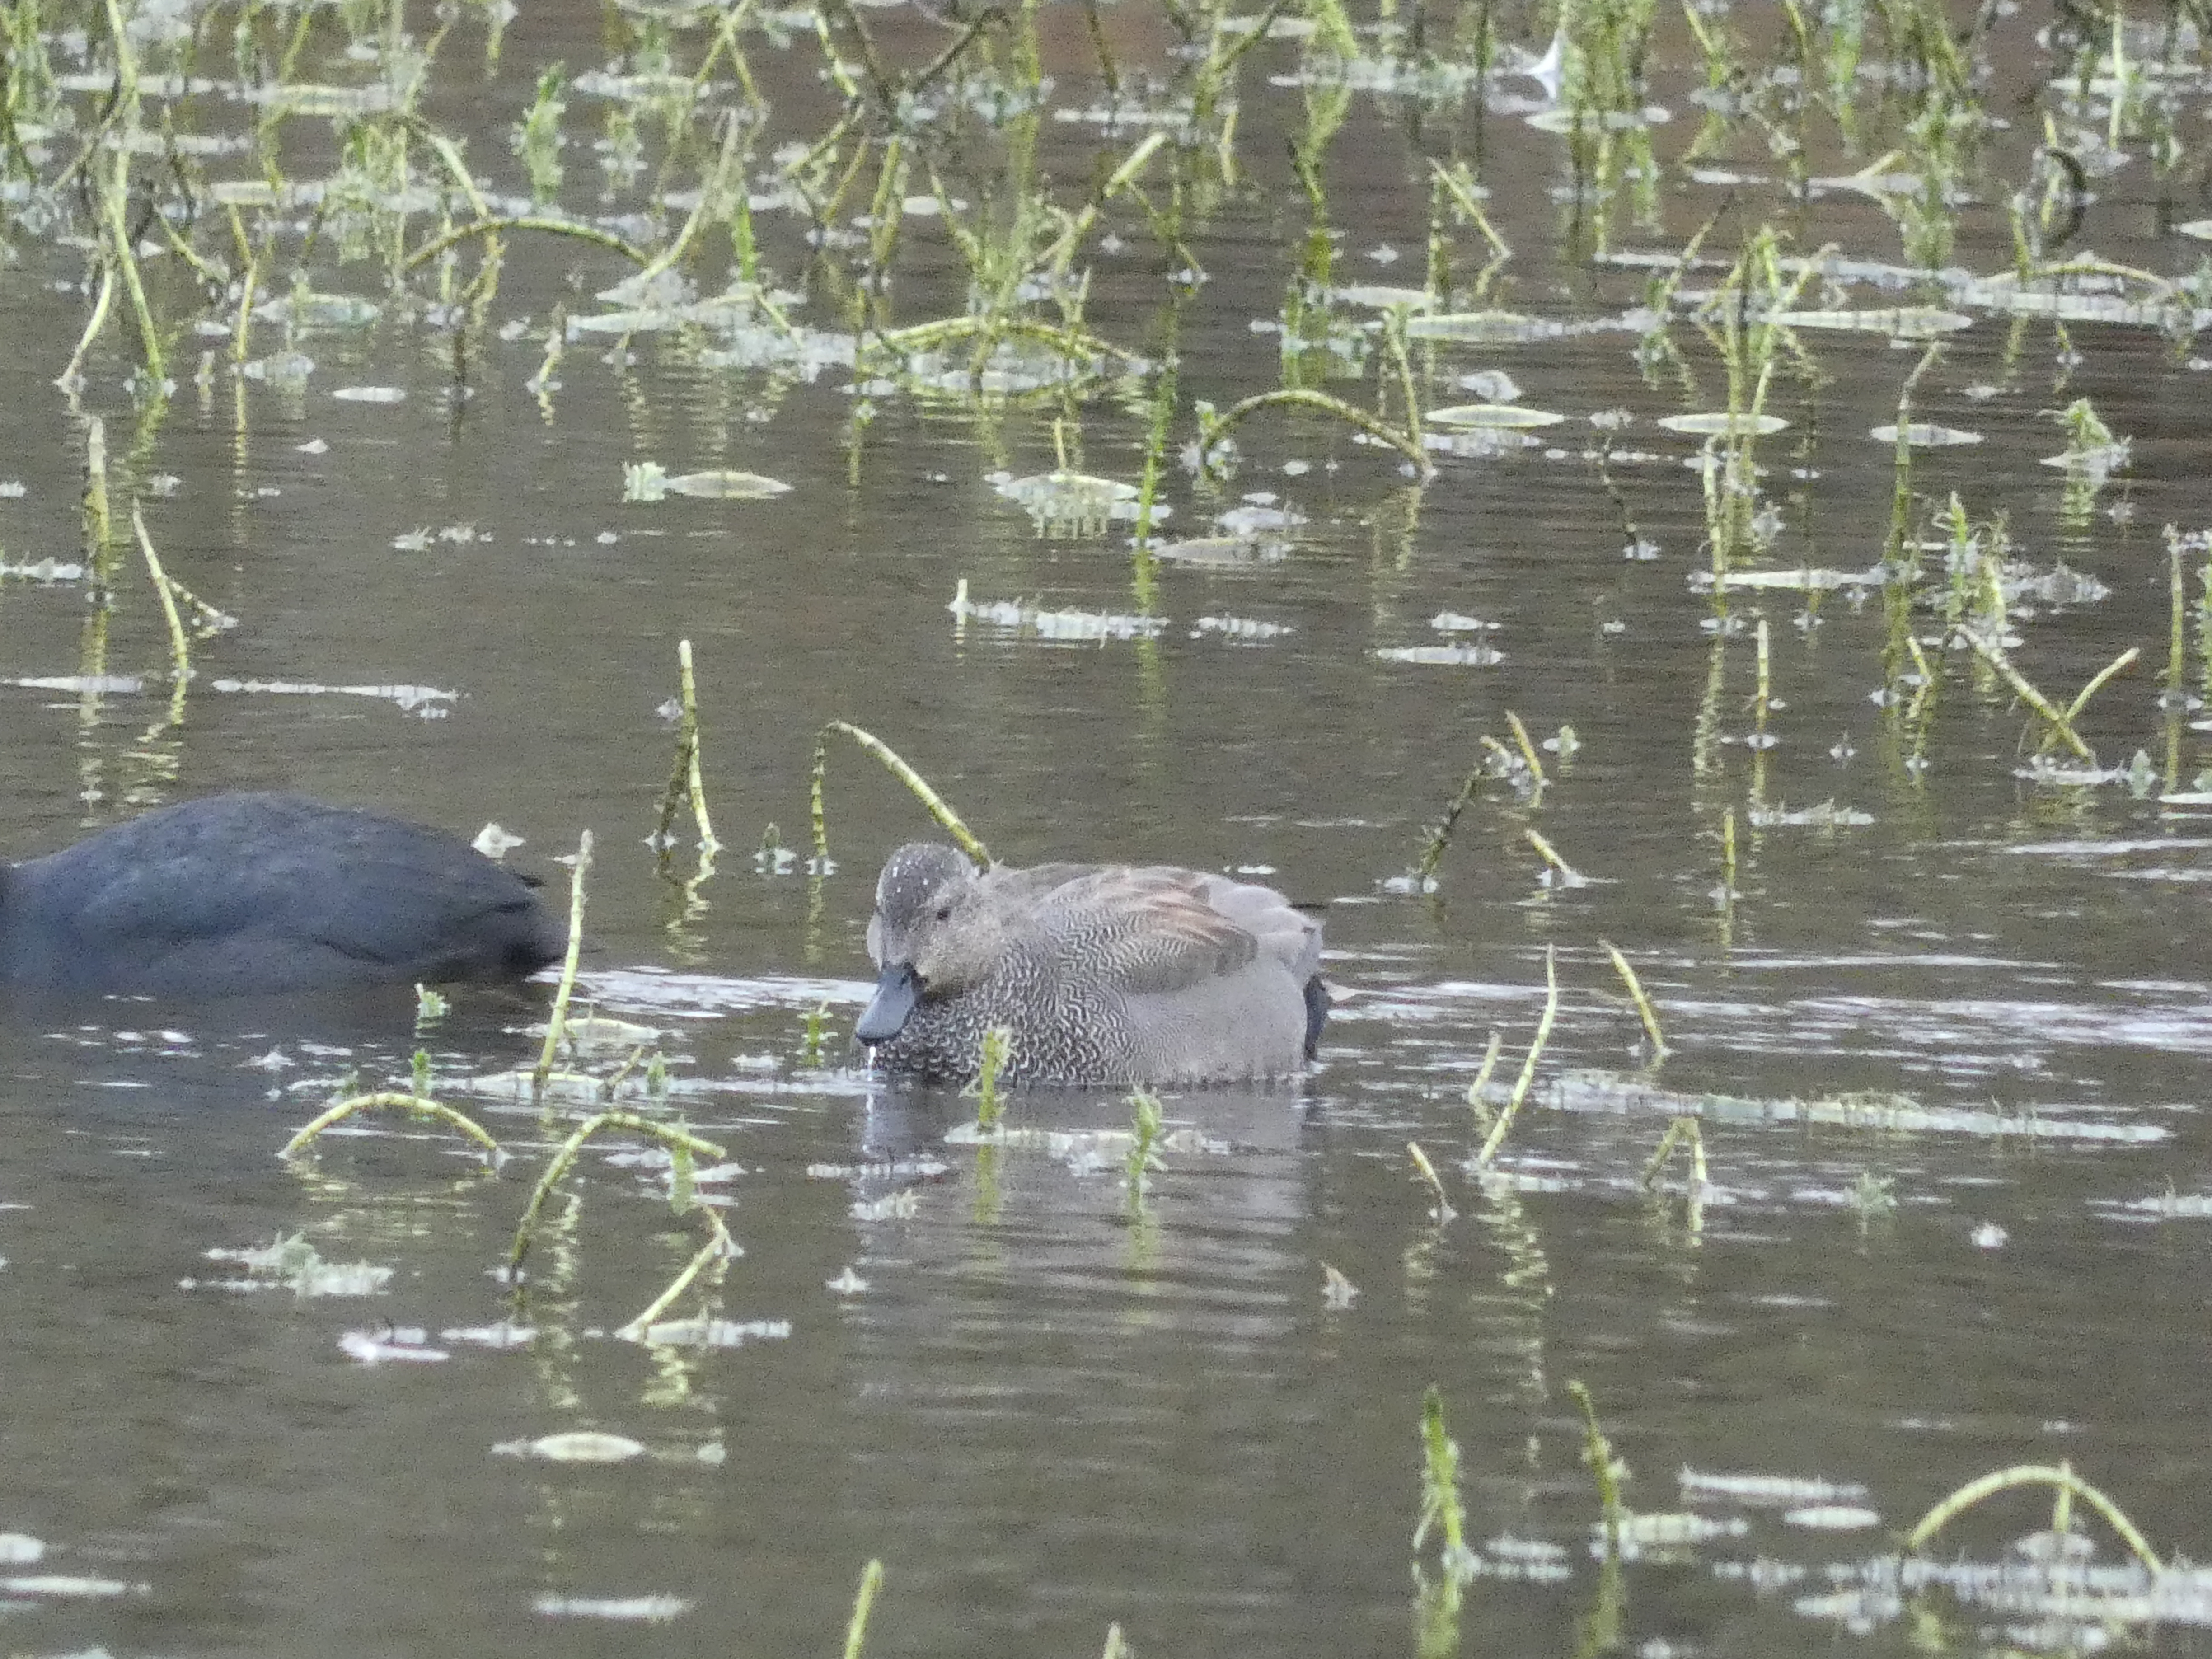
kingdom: Animalia
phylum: Chordata
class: Aves
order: Anseriformes
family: Anatidae
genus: Mareca
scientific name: Mareca strepera
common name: Knarand
